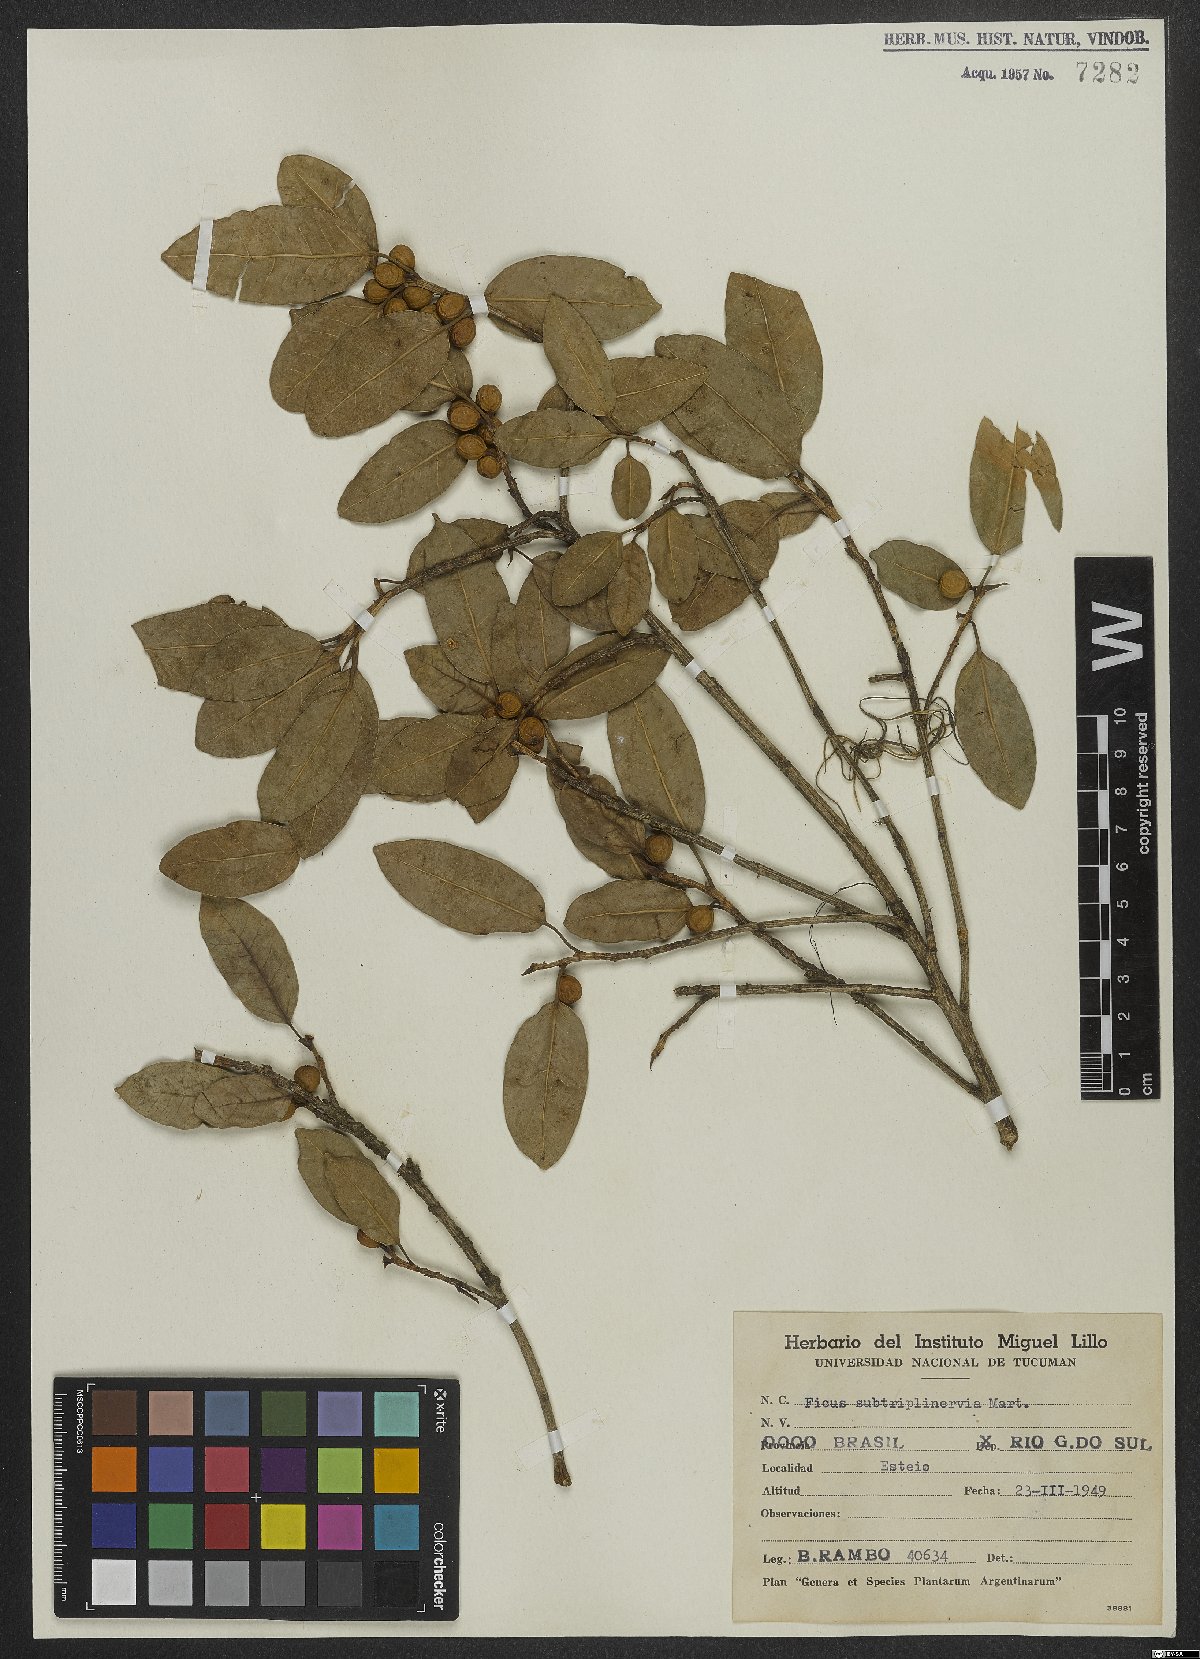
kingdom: Plantae
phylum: Tracheophyta
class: Magnoliopsida
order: Rosales
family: Moraceae
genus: Ficus
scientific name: Ficus pertusa
